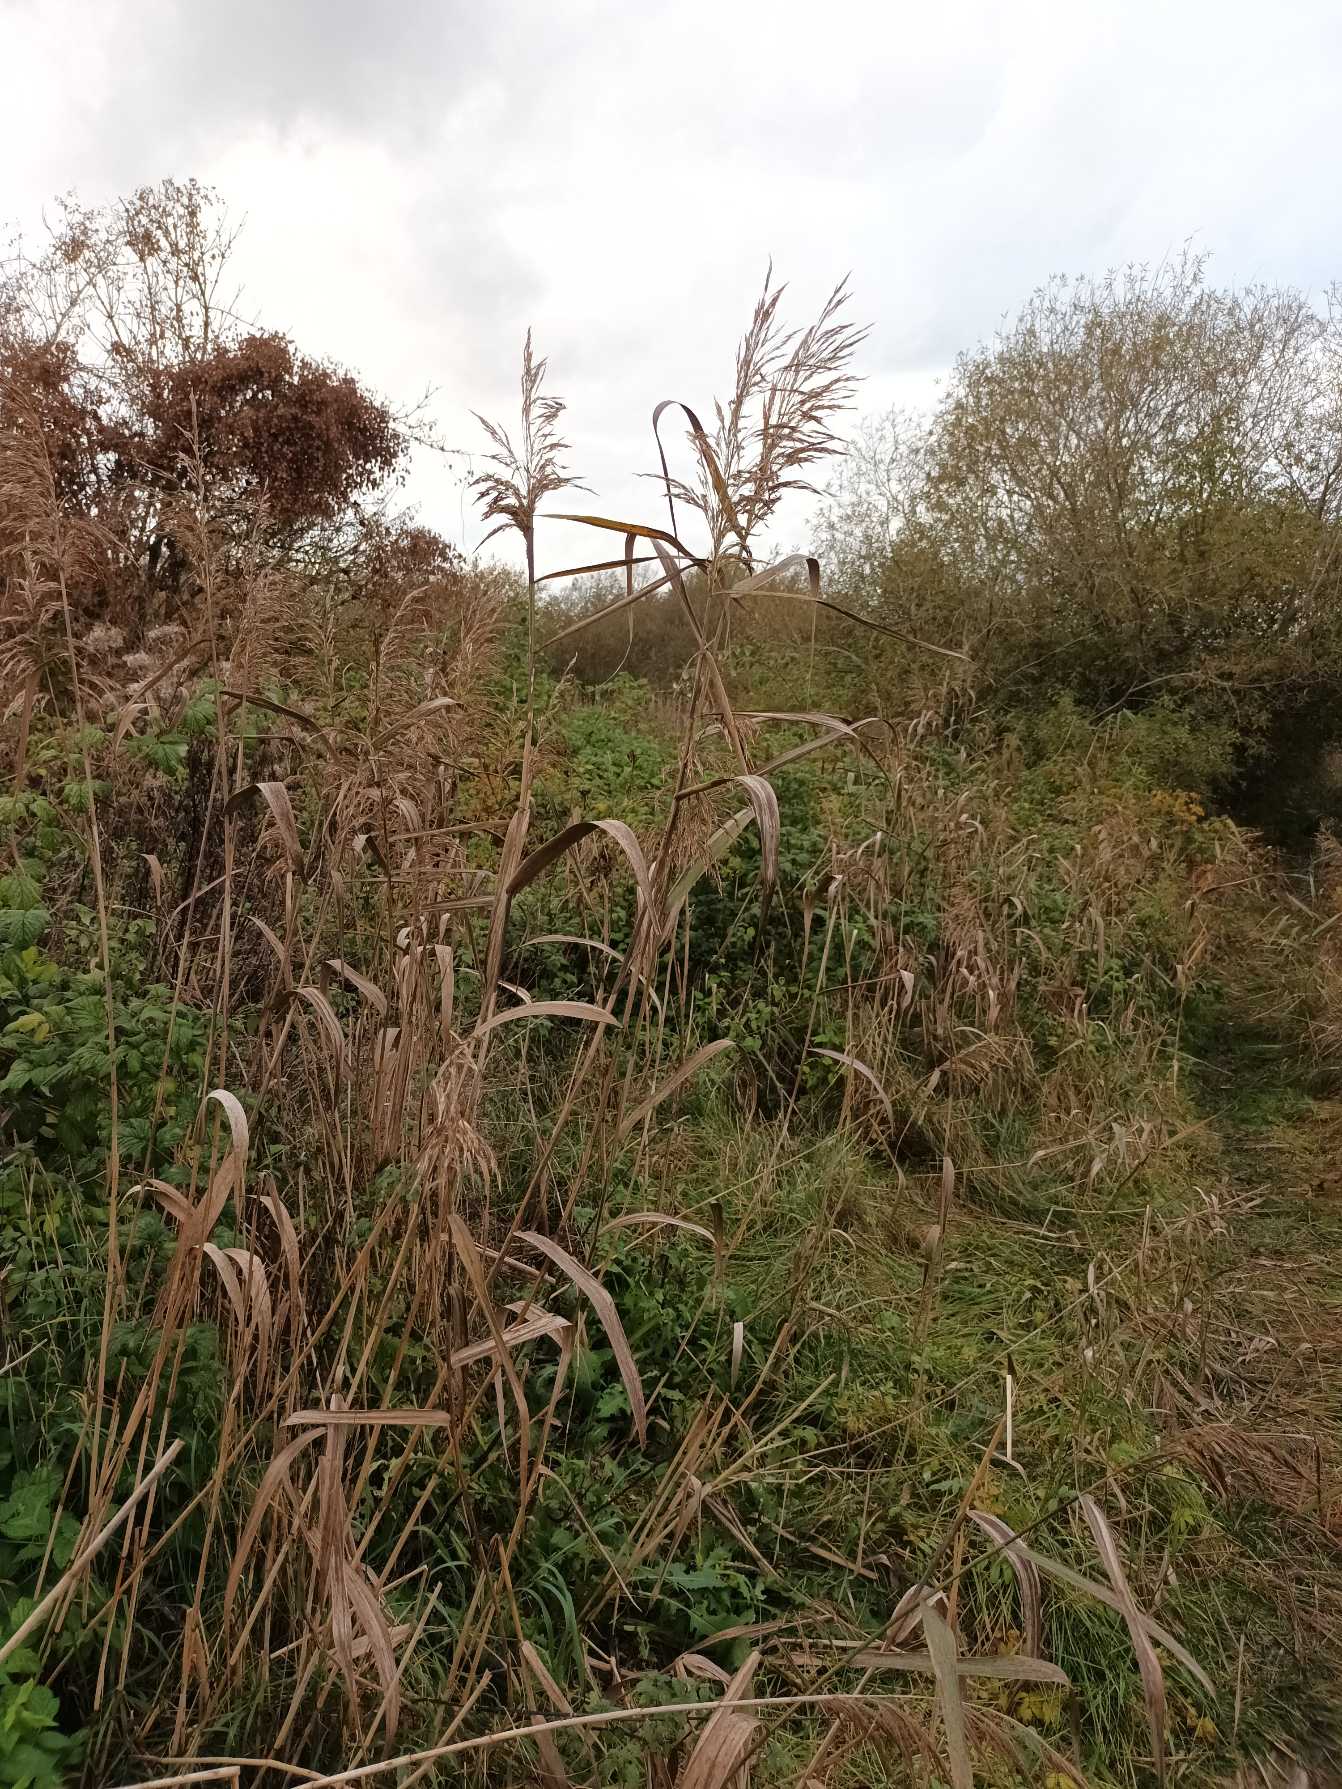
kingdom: Plantae
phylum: Tracheophyta
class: Liliopsida
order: Poales
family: Poaceae
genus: Phragmites
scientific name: Phragmites australis
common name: Tagrør
